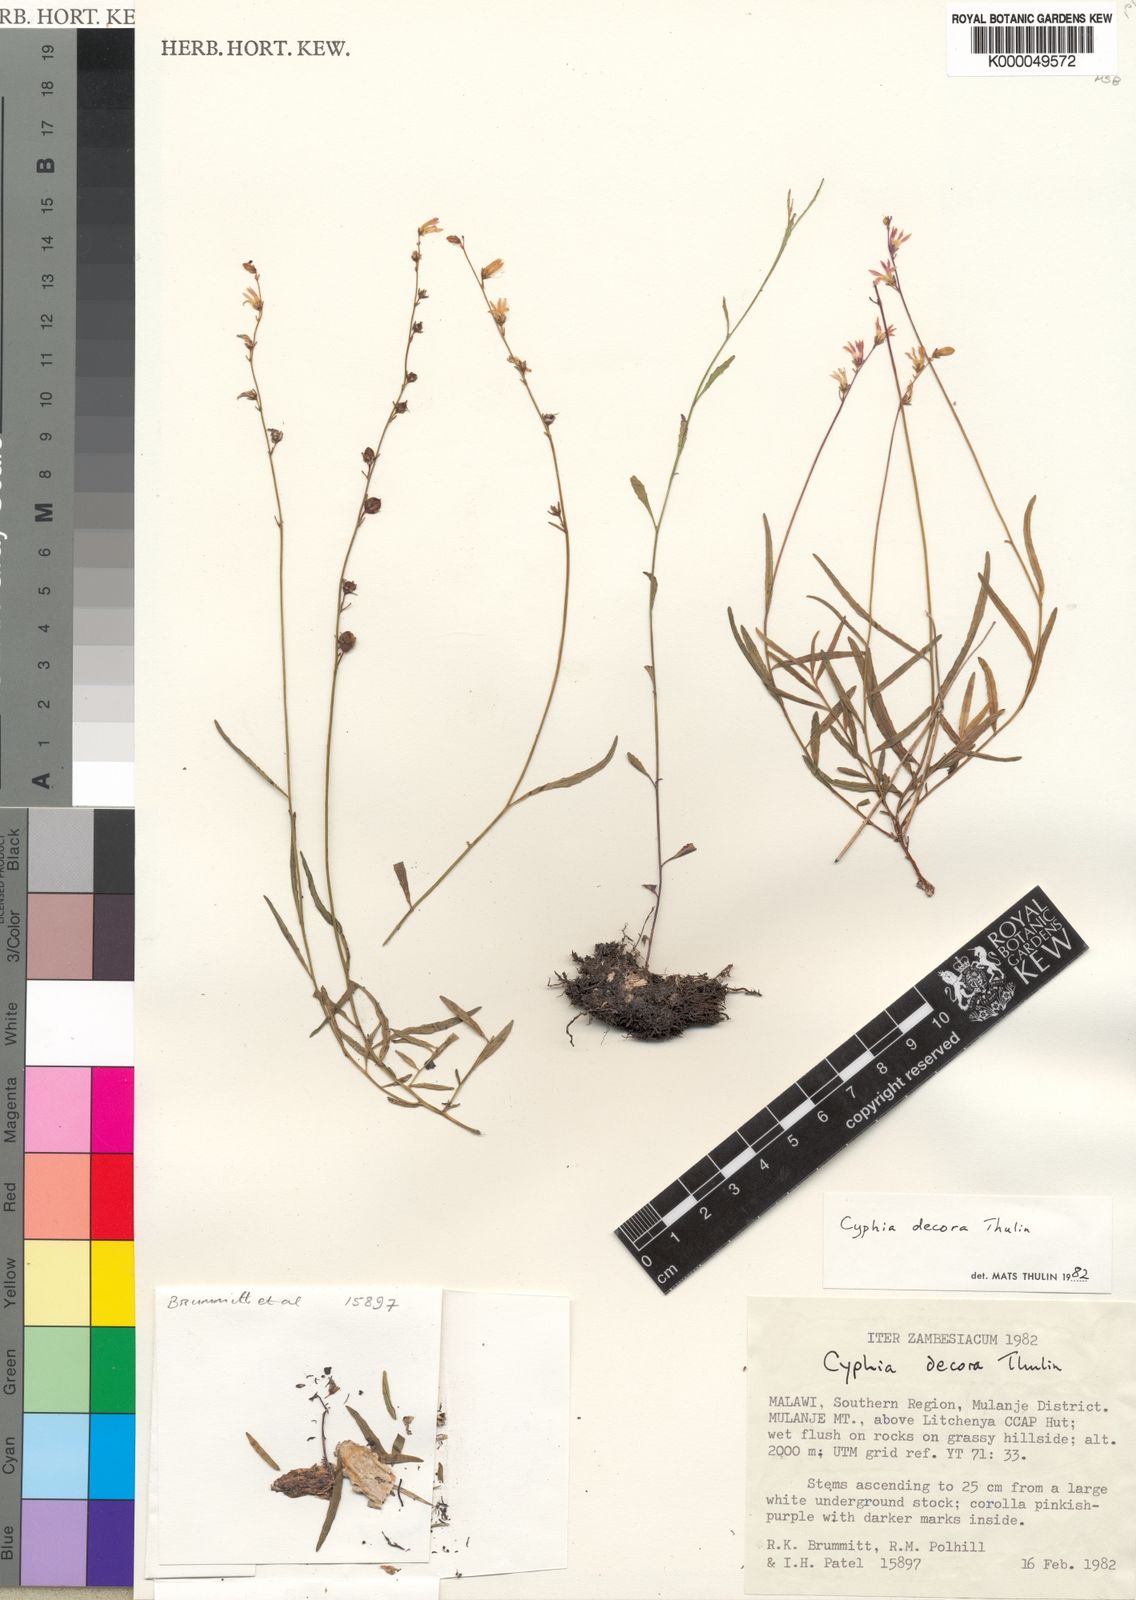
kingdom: Plantae
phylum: Tracheophyta
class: Magnoliopsida
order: Asterales
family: Campanulaceae
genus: Cyphia
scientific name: Cyphia decora
